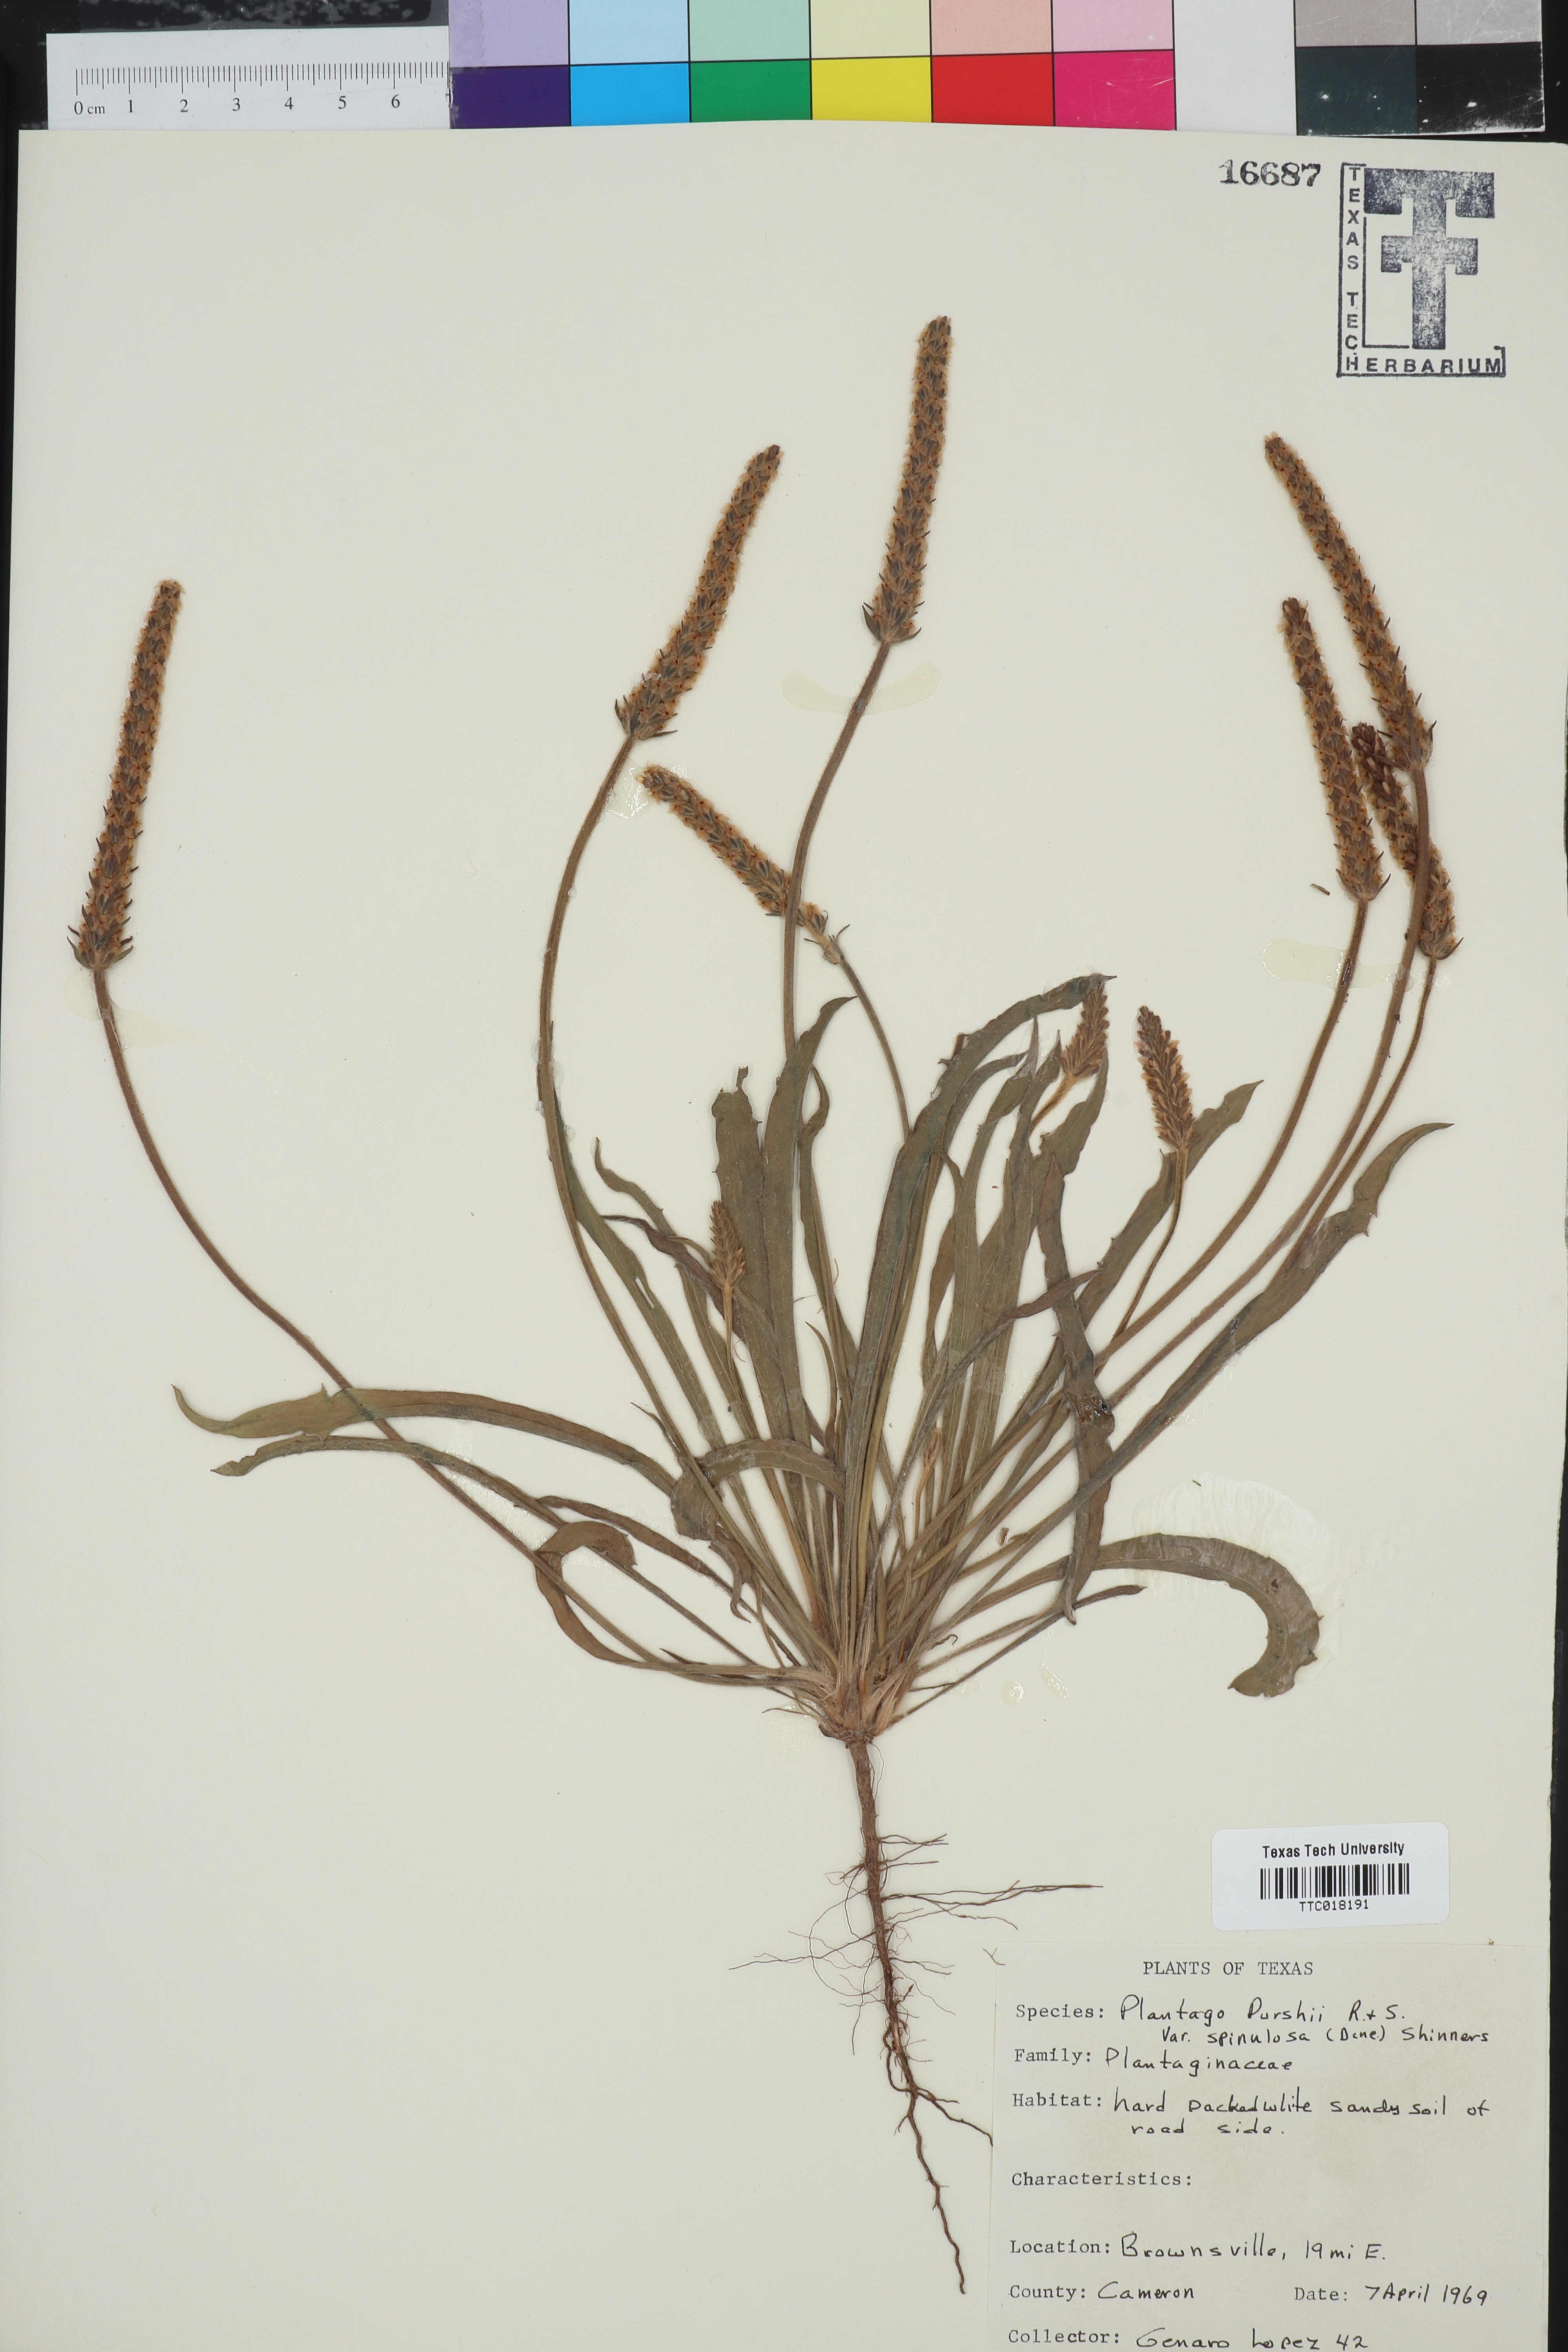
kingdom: Plantae
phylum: Tracheophyta
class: Magnoliopsida
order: Lamiales
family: Plantaginaceae
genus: Plantago
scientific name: Plantago patagonica
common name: Patagonia indian-wheat
